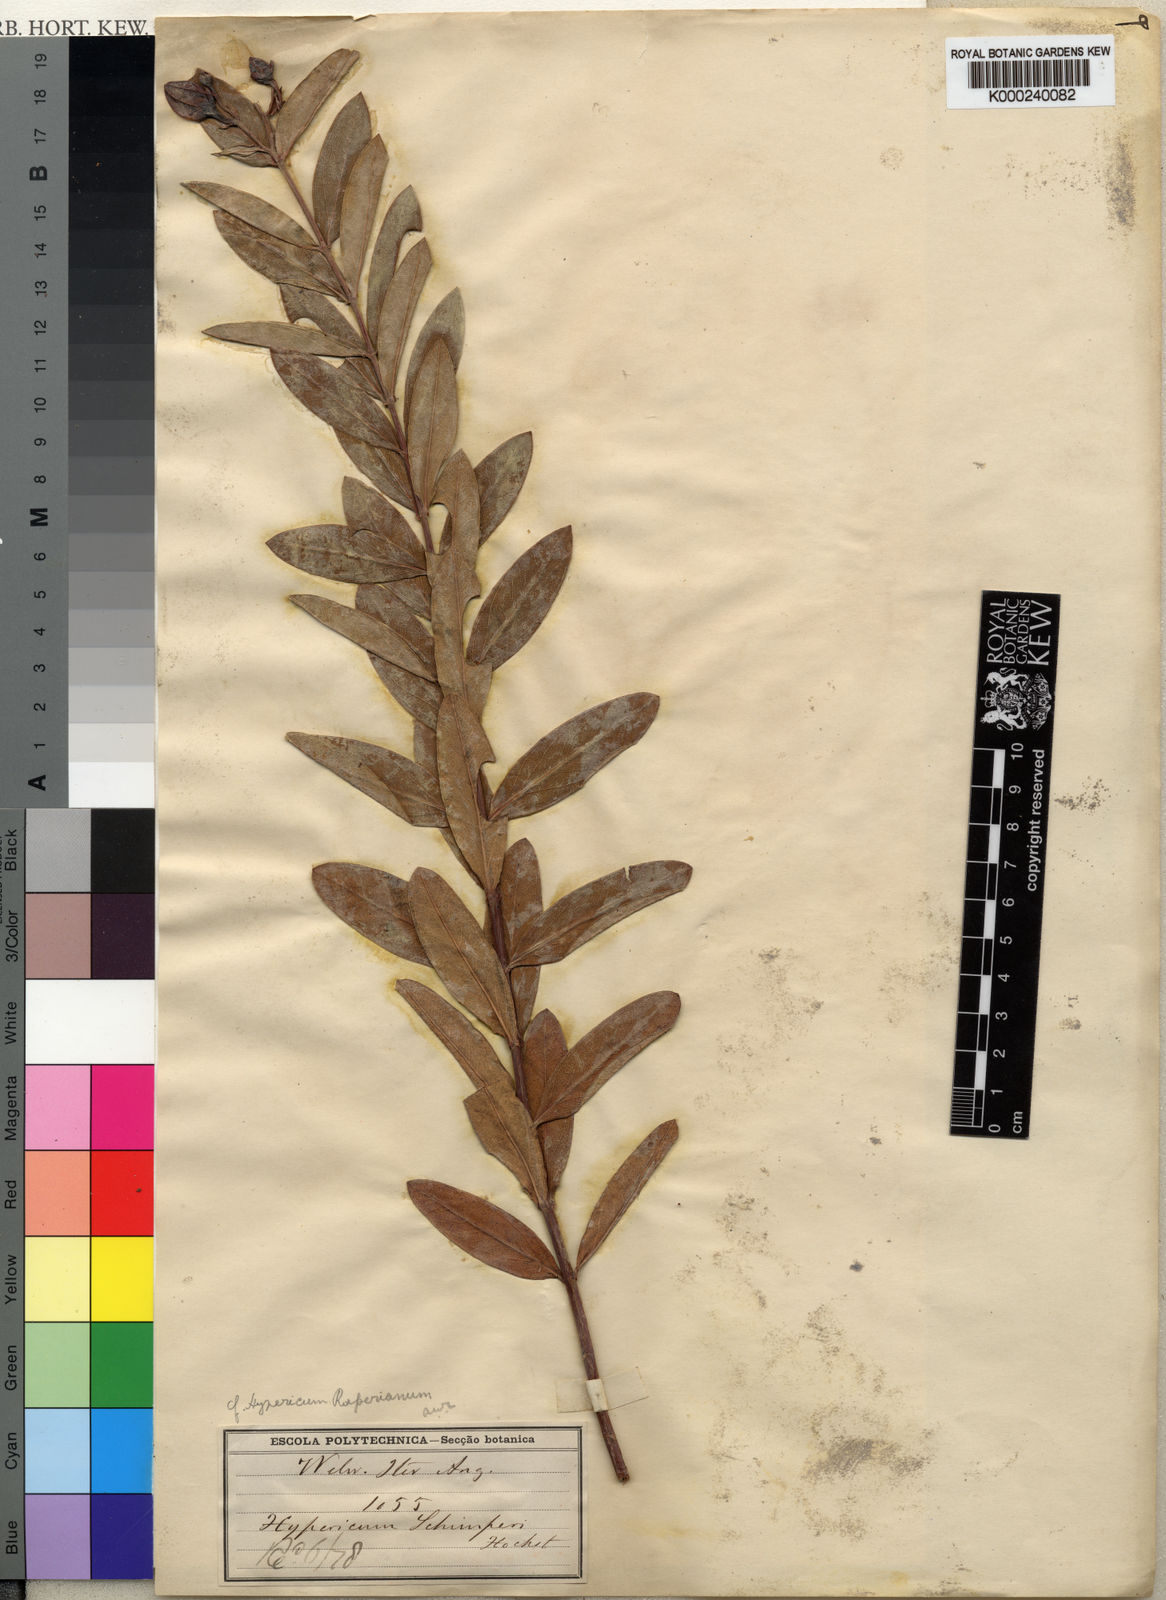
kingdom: Plantae
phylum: Tracheophyta
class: Magnoliopsida
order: Malpighiales
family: Hypericaceae
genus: Hypericum
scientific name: Hypericum
